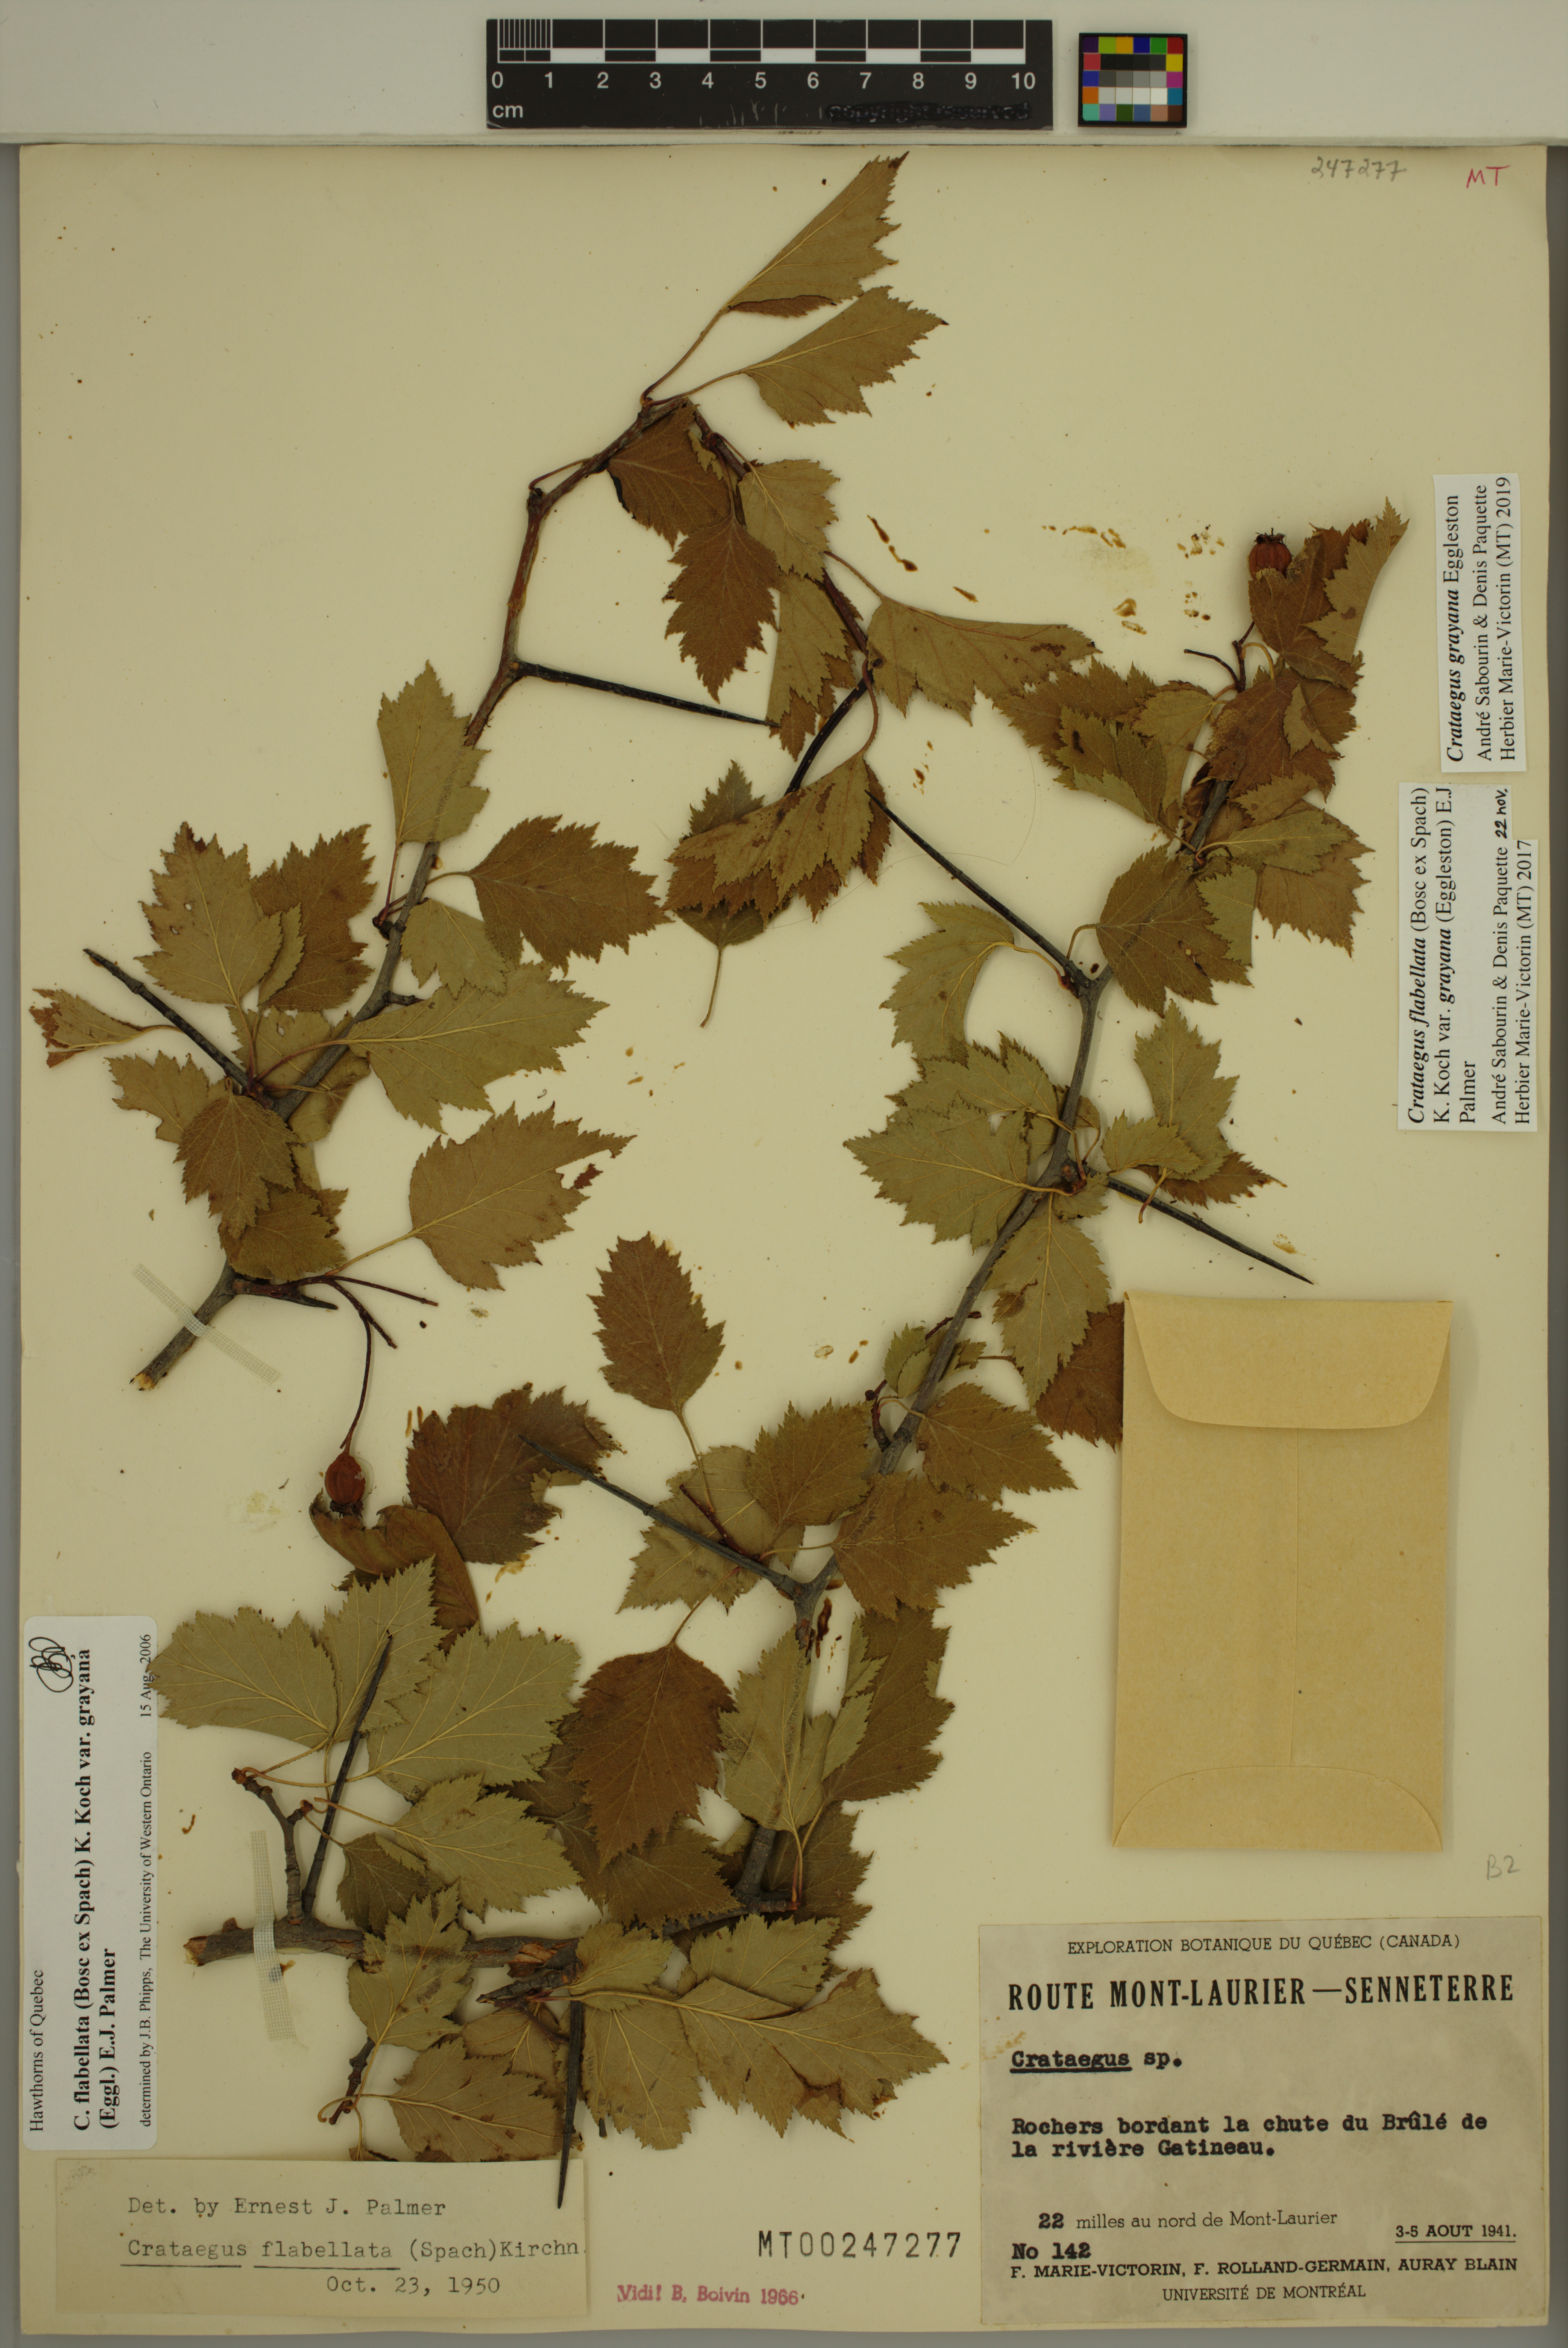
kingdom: Plantae
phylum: Tracheophyta
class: Magnoliopsida
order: Rosales
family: Rosaceae
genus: Crataegus
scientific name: Crataegus schuettei
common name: Schuette's hawthorn
